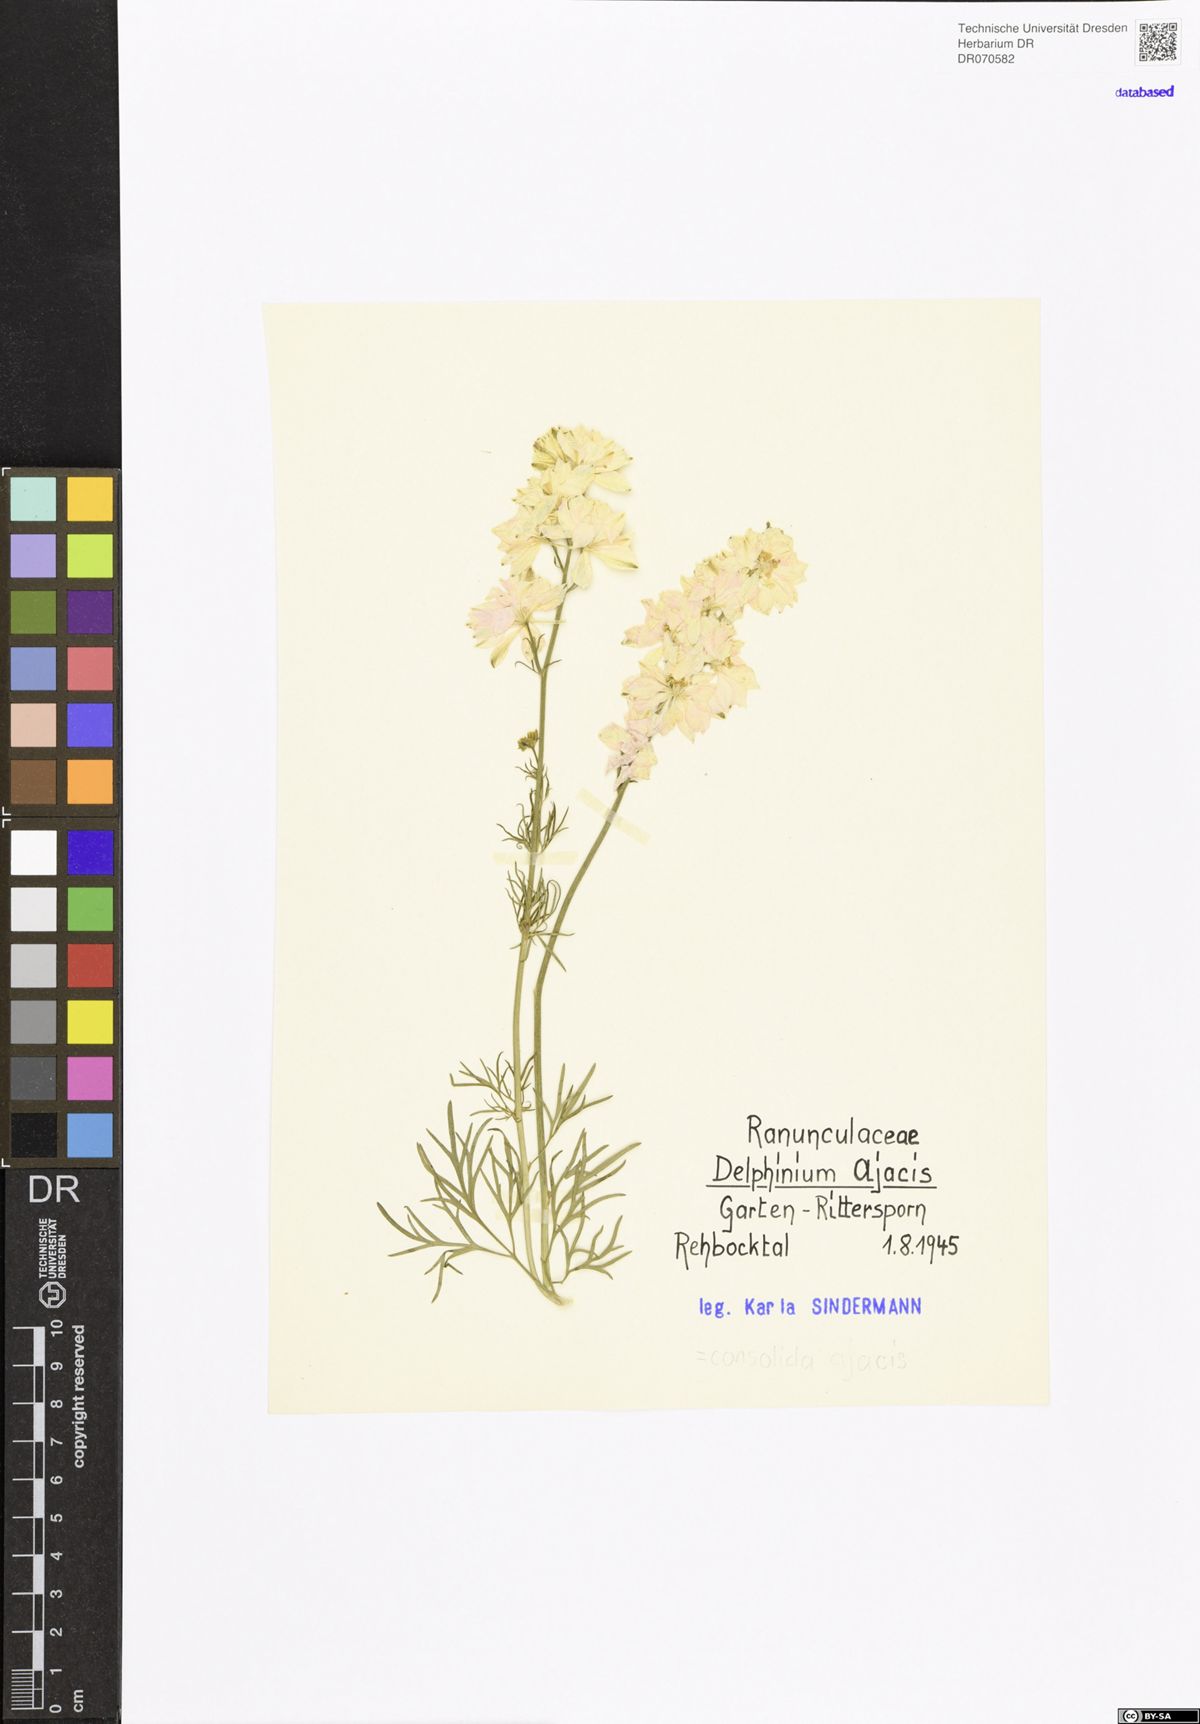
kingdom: Plantae
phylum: Tracheophyta
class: Magnoliopsida
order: Ranunculales
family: Ranunculaceae
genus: Delphinium
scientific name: Delphinium ajacis
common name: Doubtful knight's-spur
